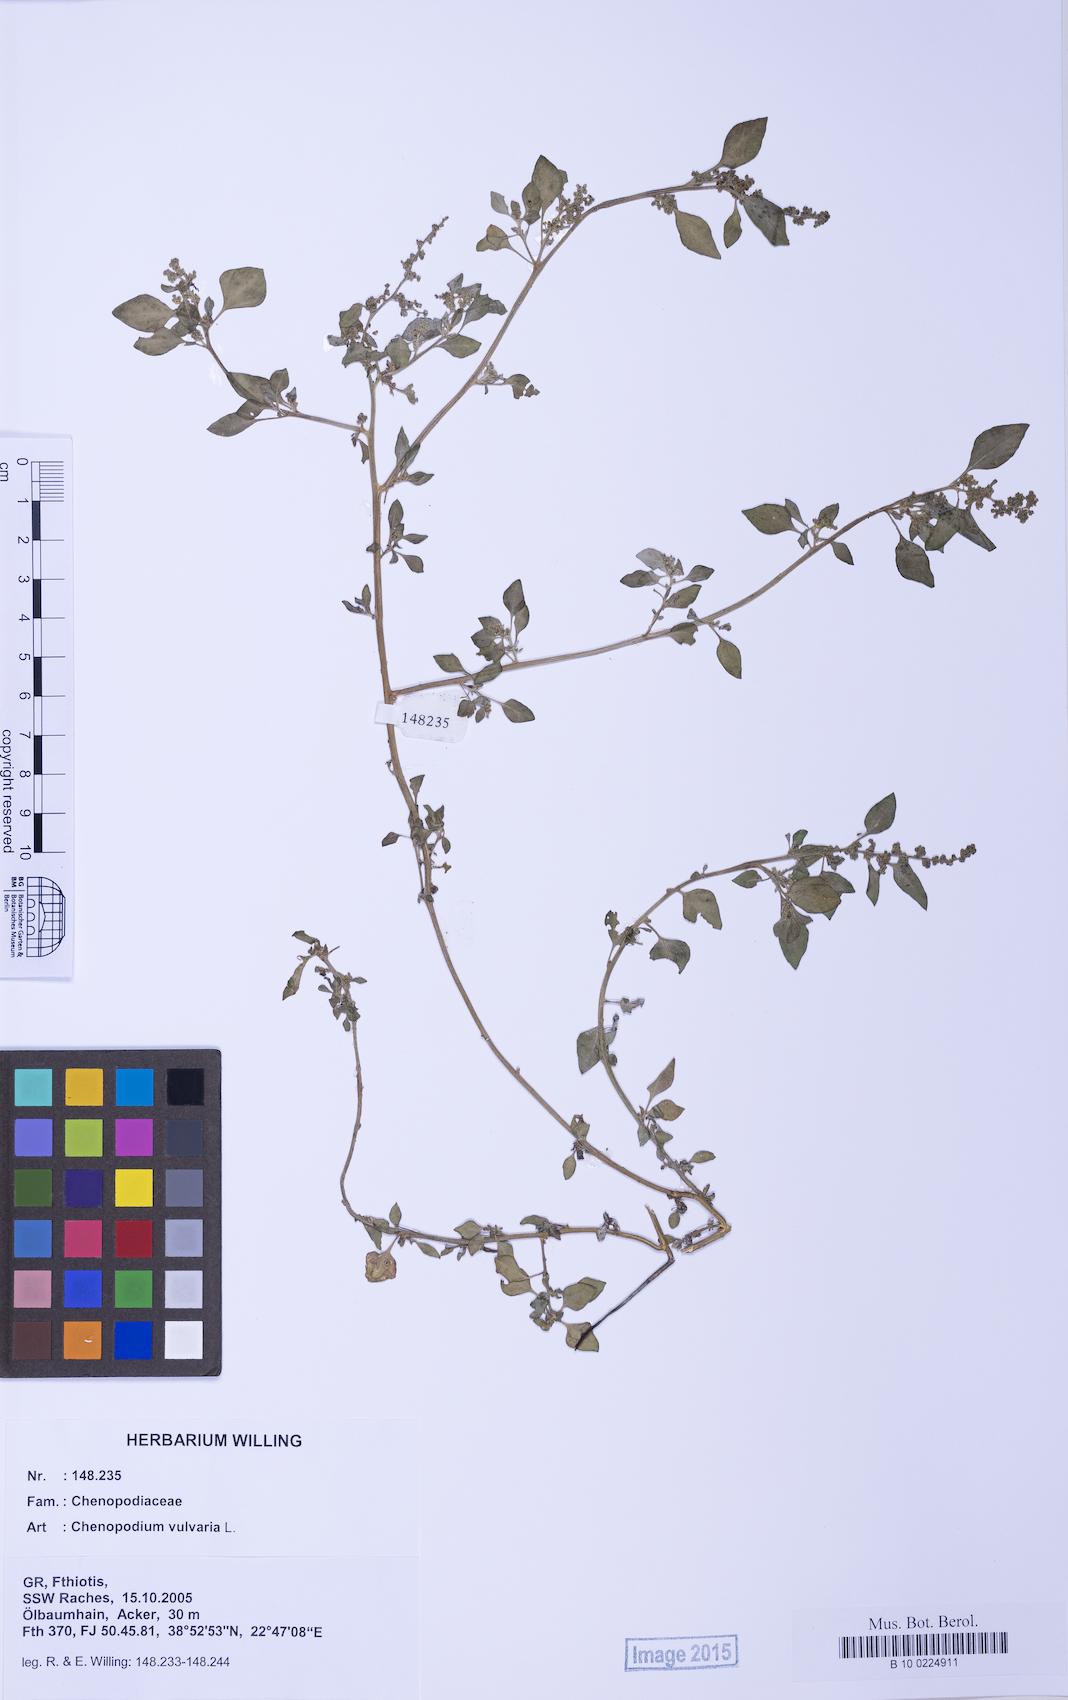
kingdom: Plantae
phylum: Tracheophyta
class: Magnoliopsida
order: Caryophyllales
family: Amaranthaceae
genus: Chenopodium
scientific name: Chenopodium vulvaria
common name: Stinking goosefoot
